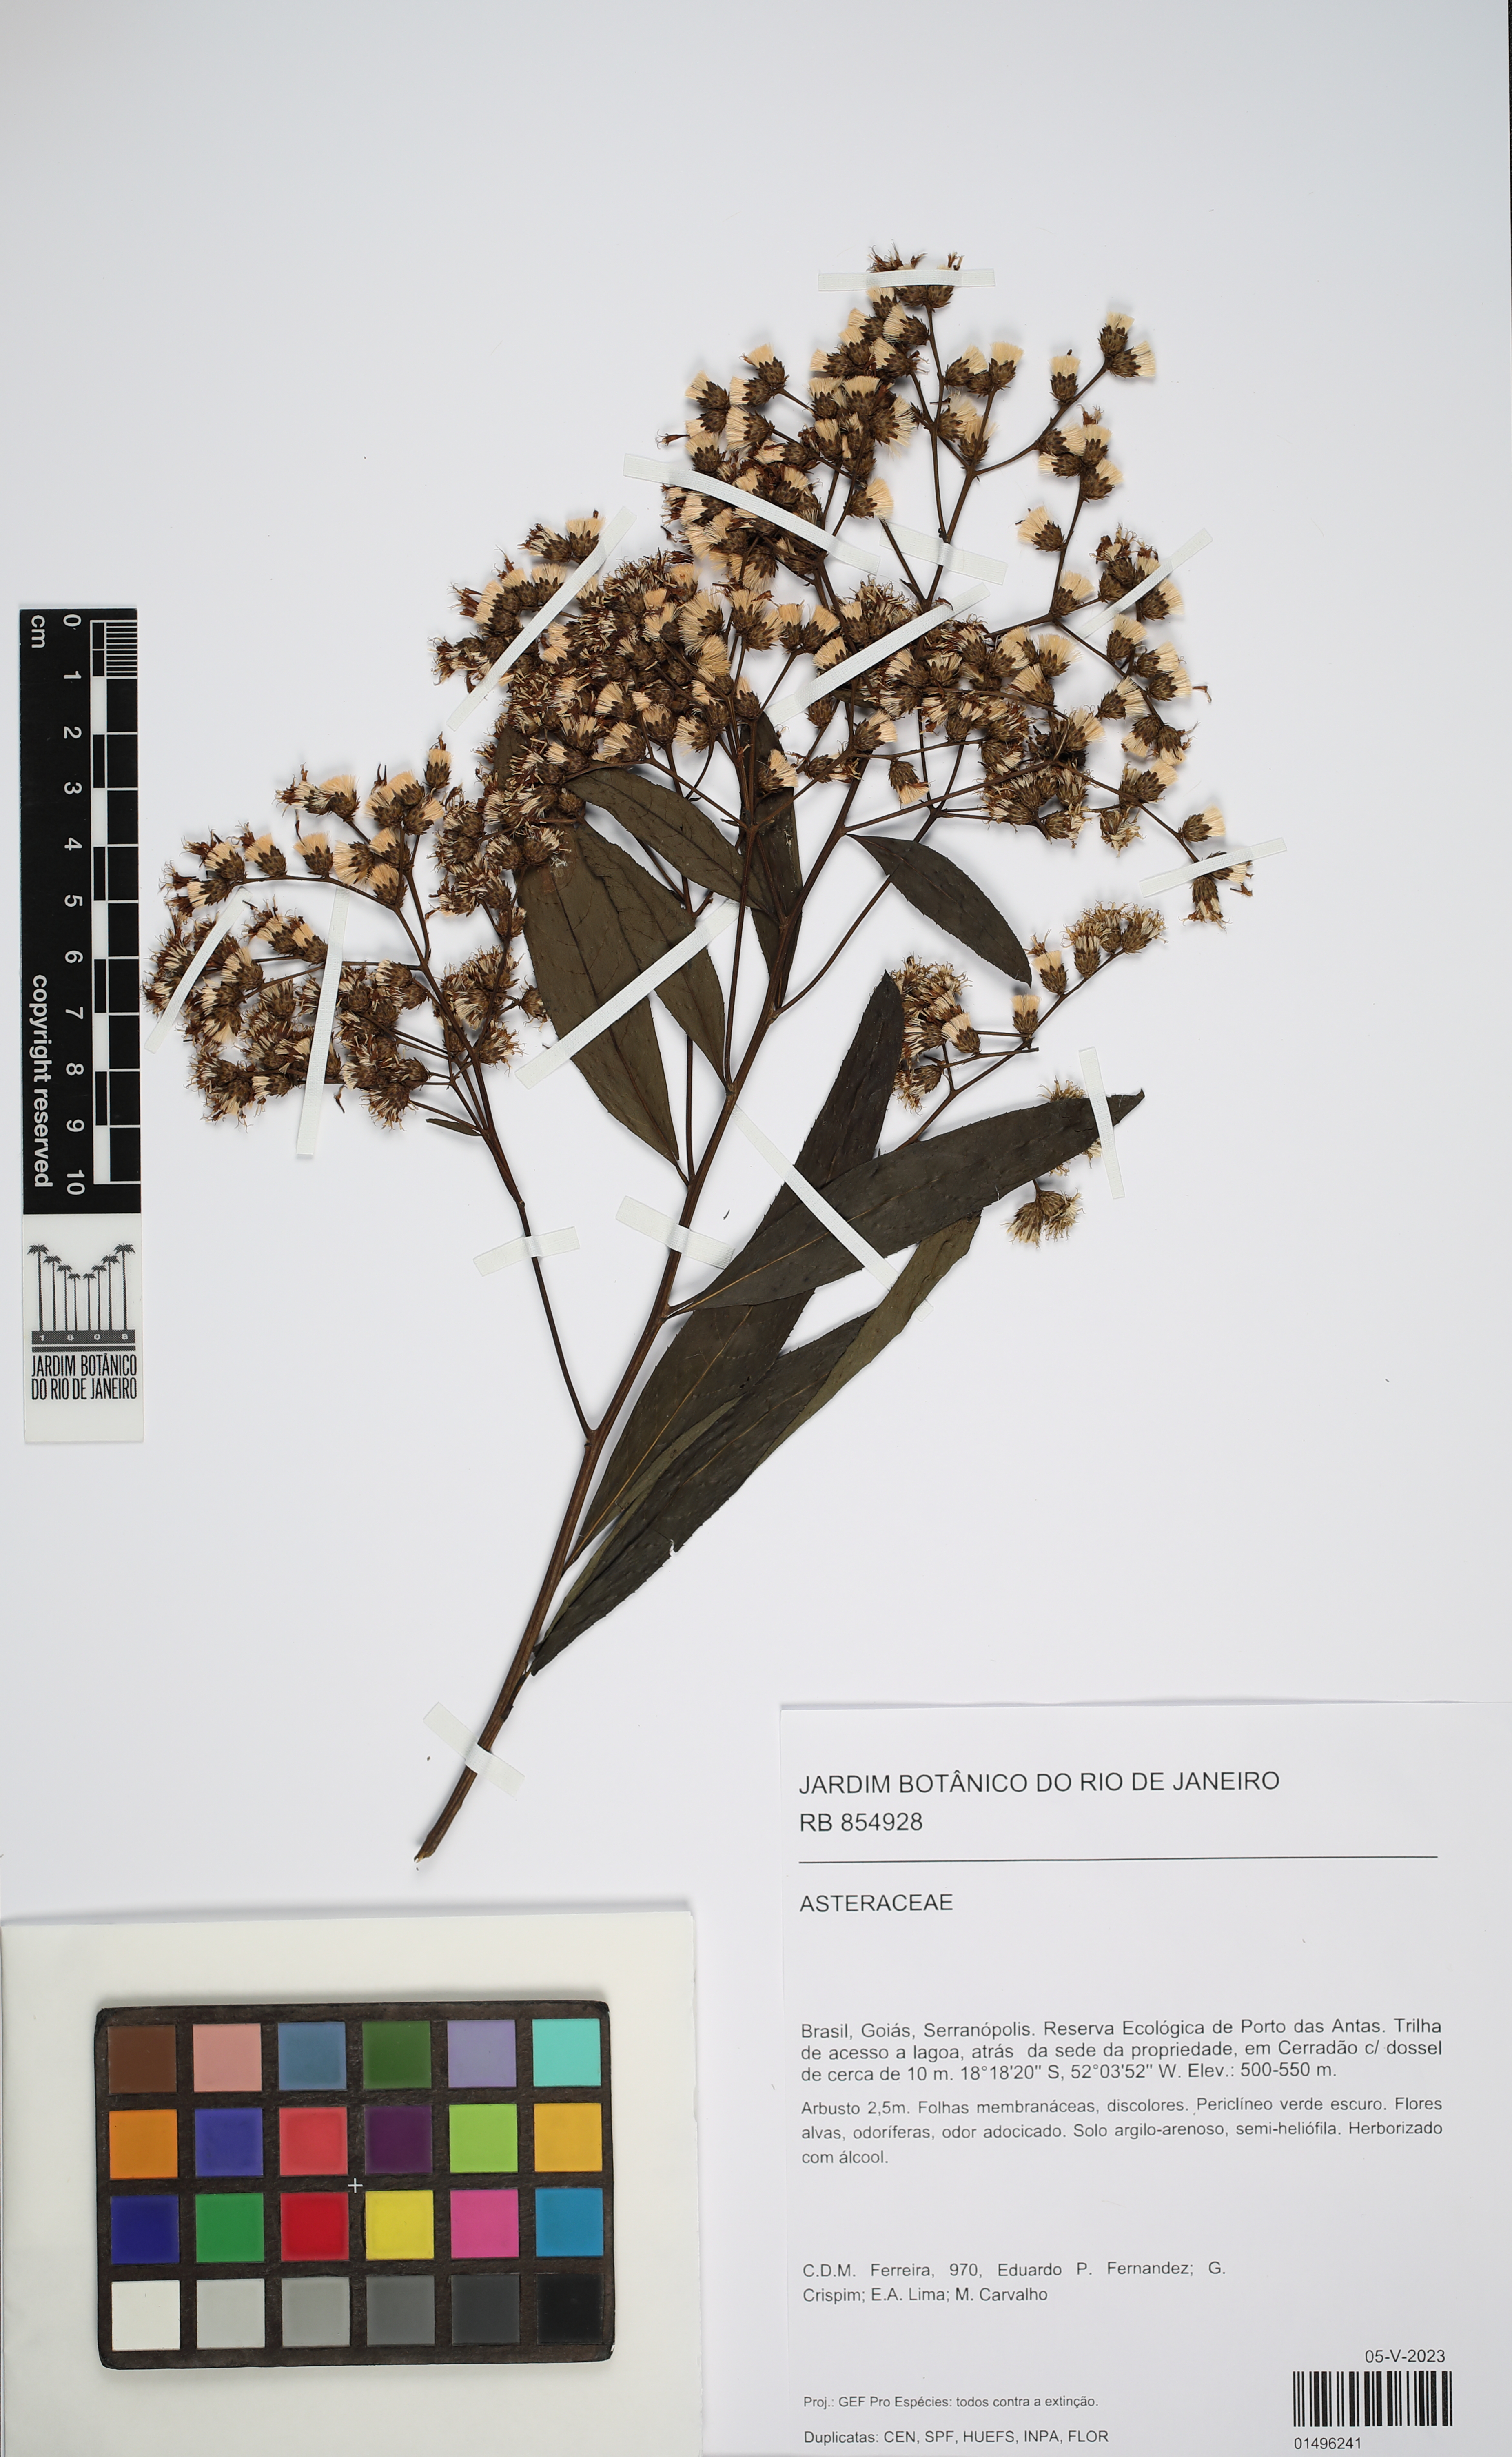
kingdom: Plantae
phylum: Tracheophyta
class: Magnoliopsida
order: Asterales
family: Asteraceae
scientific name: Asteraceae
